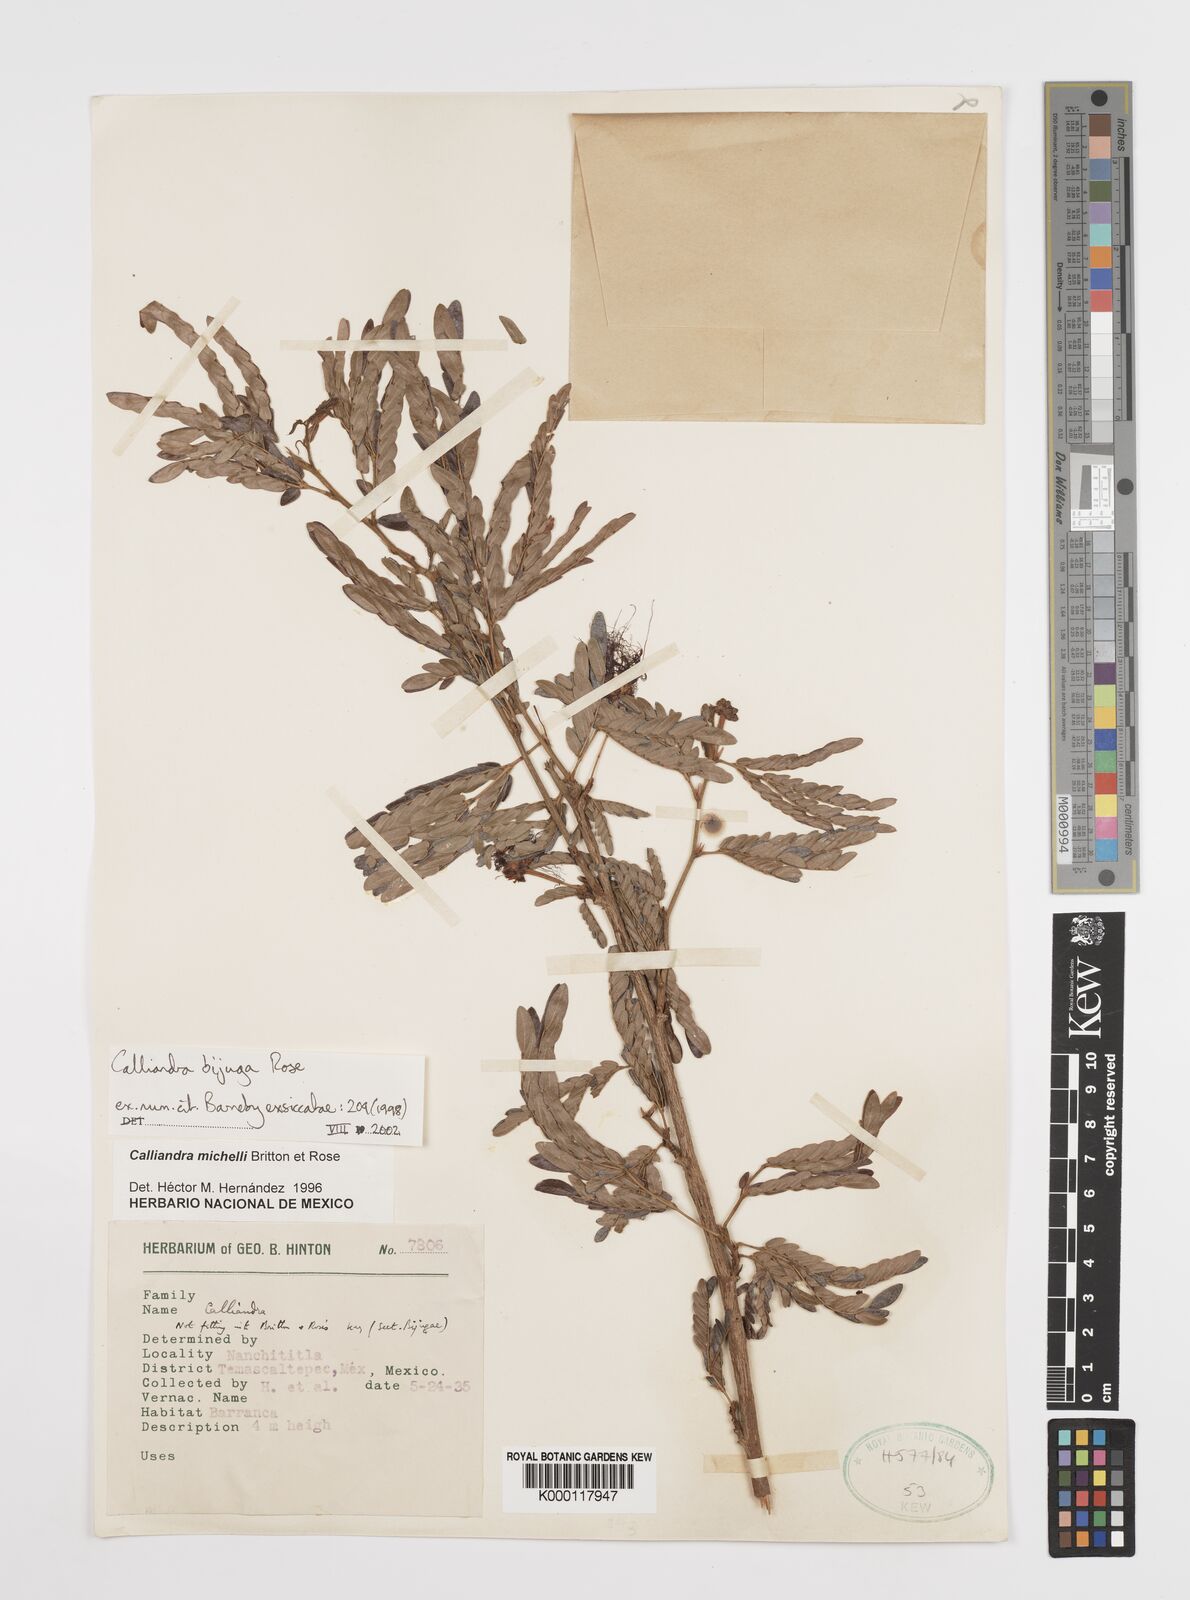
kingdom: Plantae
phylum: Tracheophyta
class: Magnoliopsida
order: Fabales
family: Fabaceae
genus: Calliandra
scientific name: Calliandra bijuga
